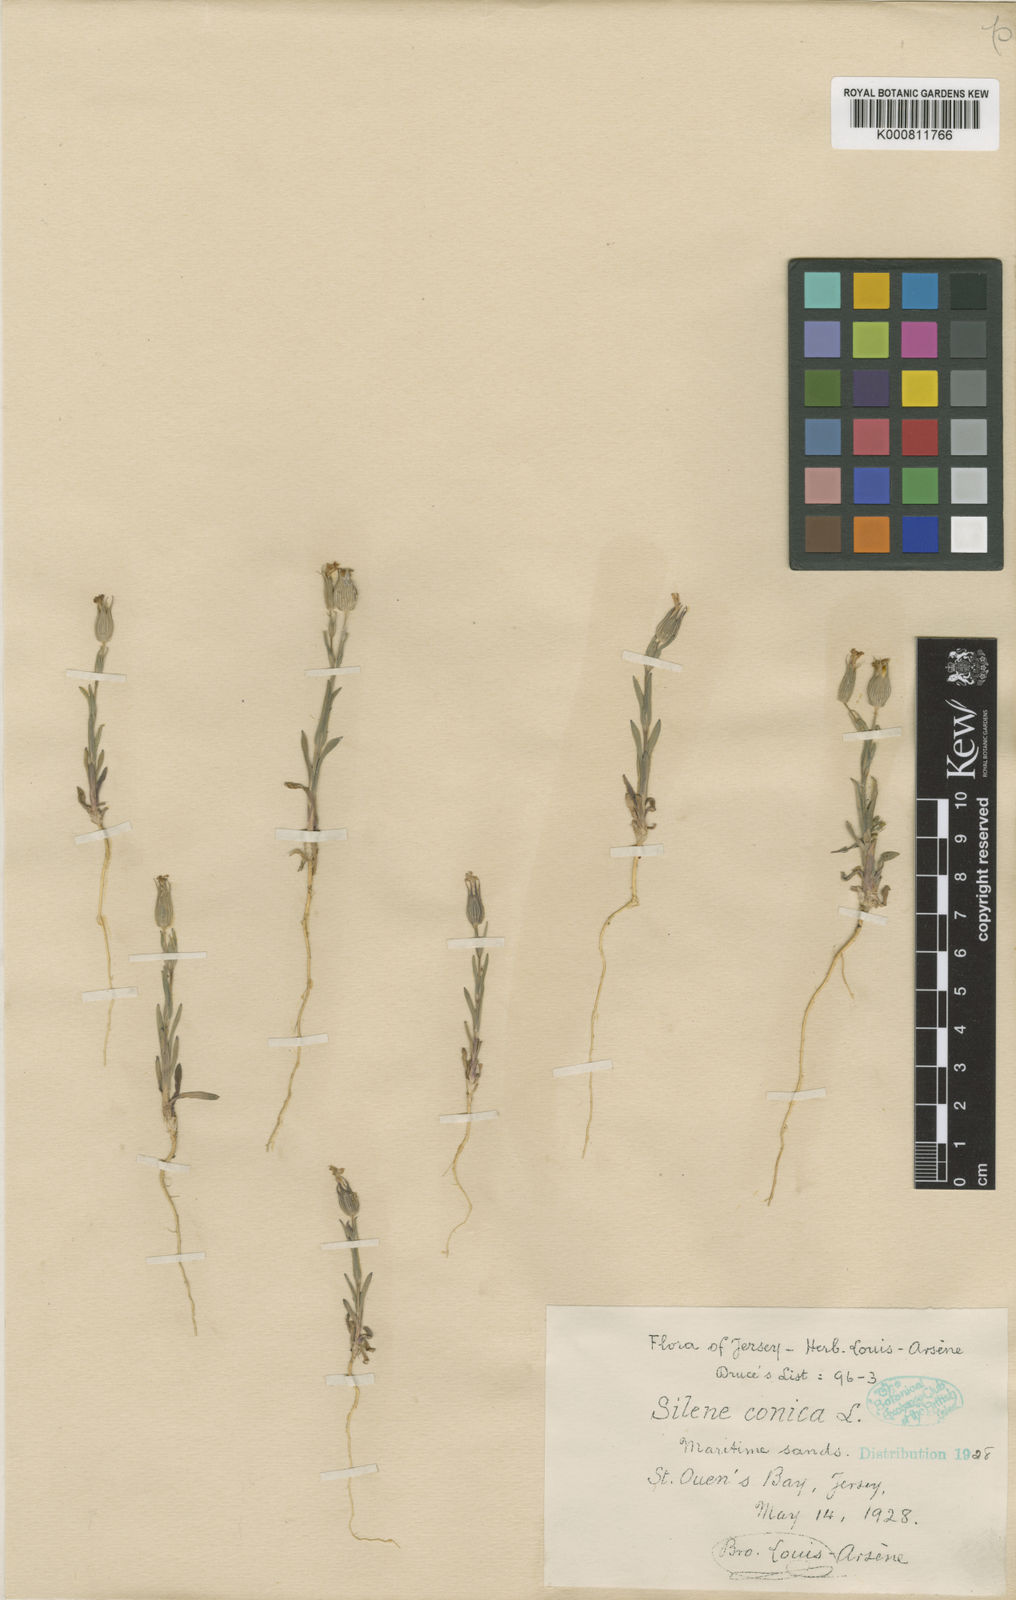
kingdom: Plantae
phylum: Tracheophyta
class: Magnoliopsida
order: Caryophyllales
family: Caryophyllaceae
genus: Silene
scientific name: Silene conica
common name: Sand catchfly
